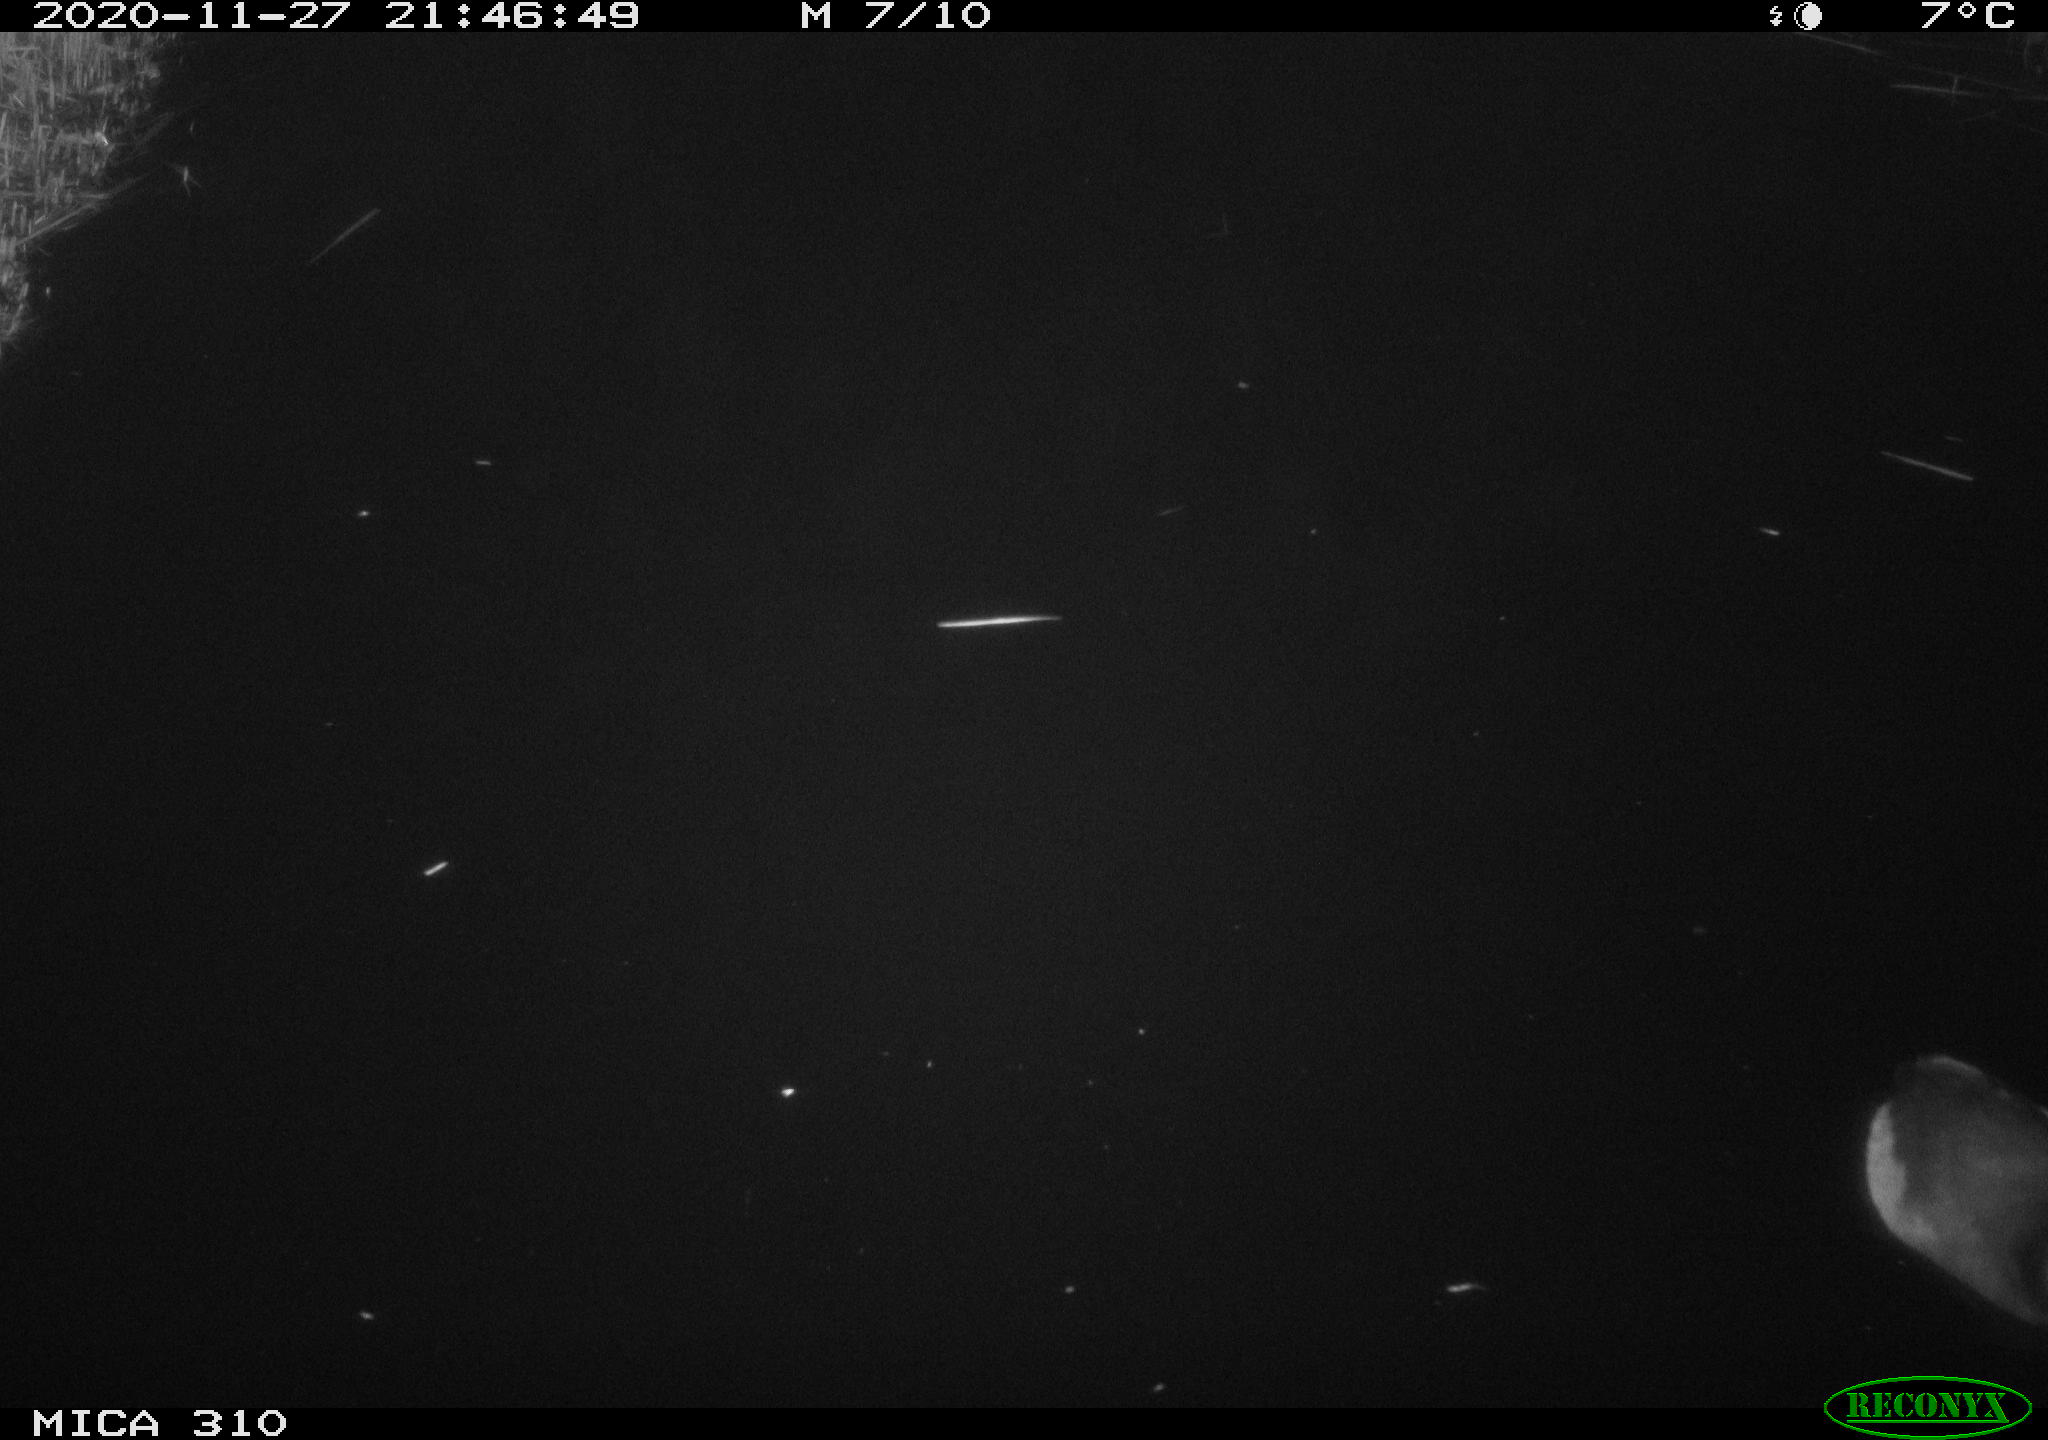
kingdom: Animalia
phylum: Chordata
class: Aves
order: Gruiformes
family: Rallidae
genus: Fulica
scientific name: Fulica atra
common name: Eurasian coot
